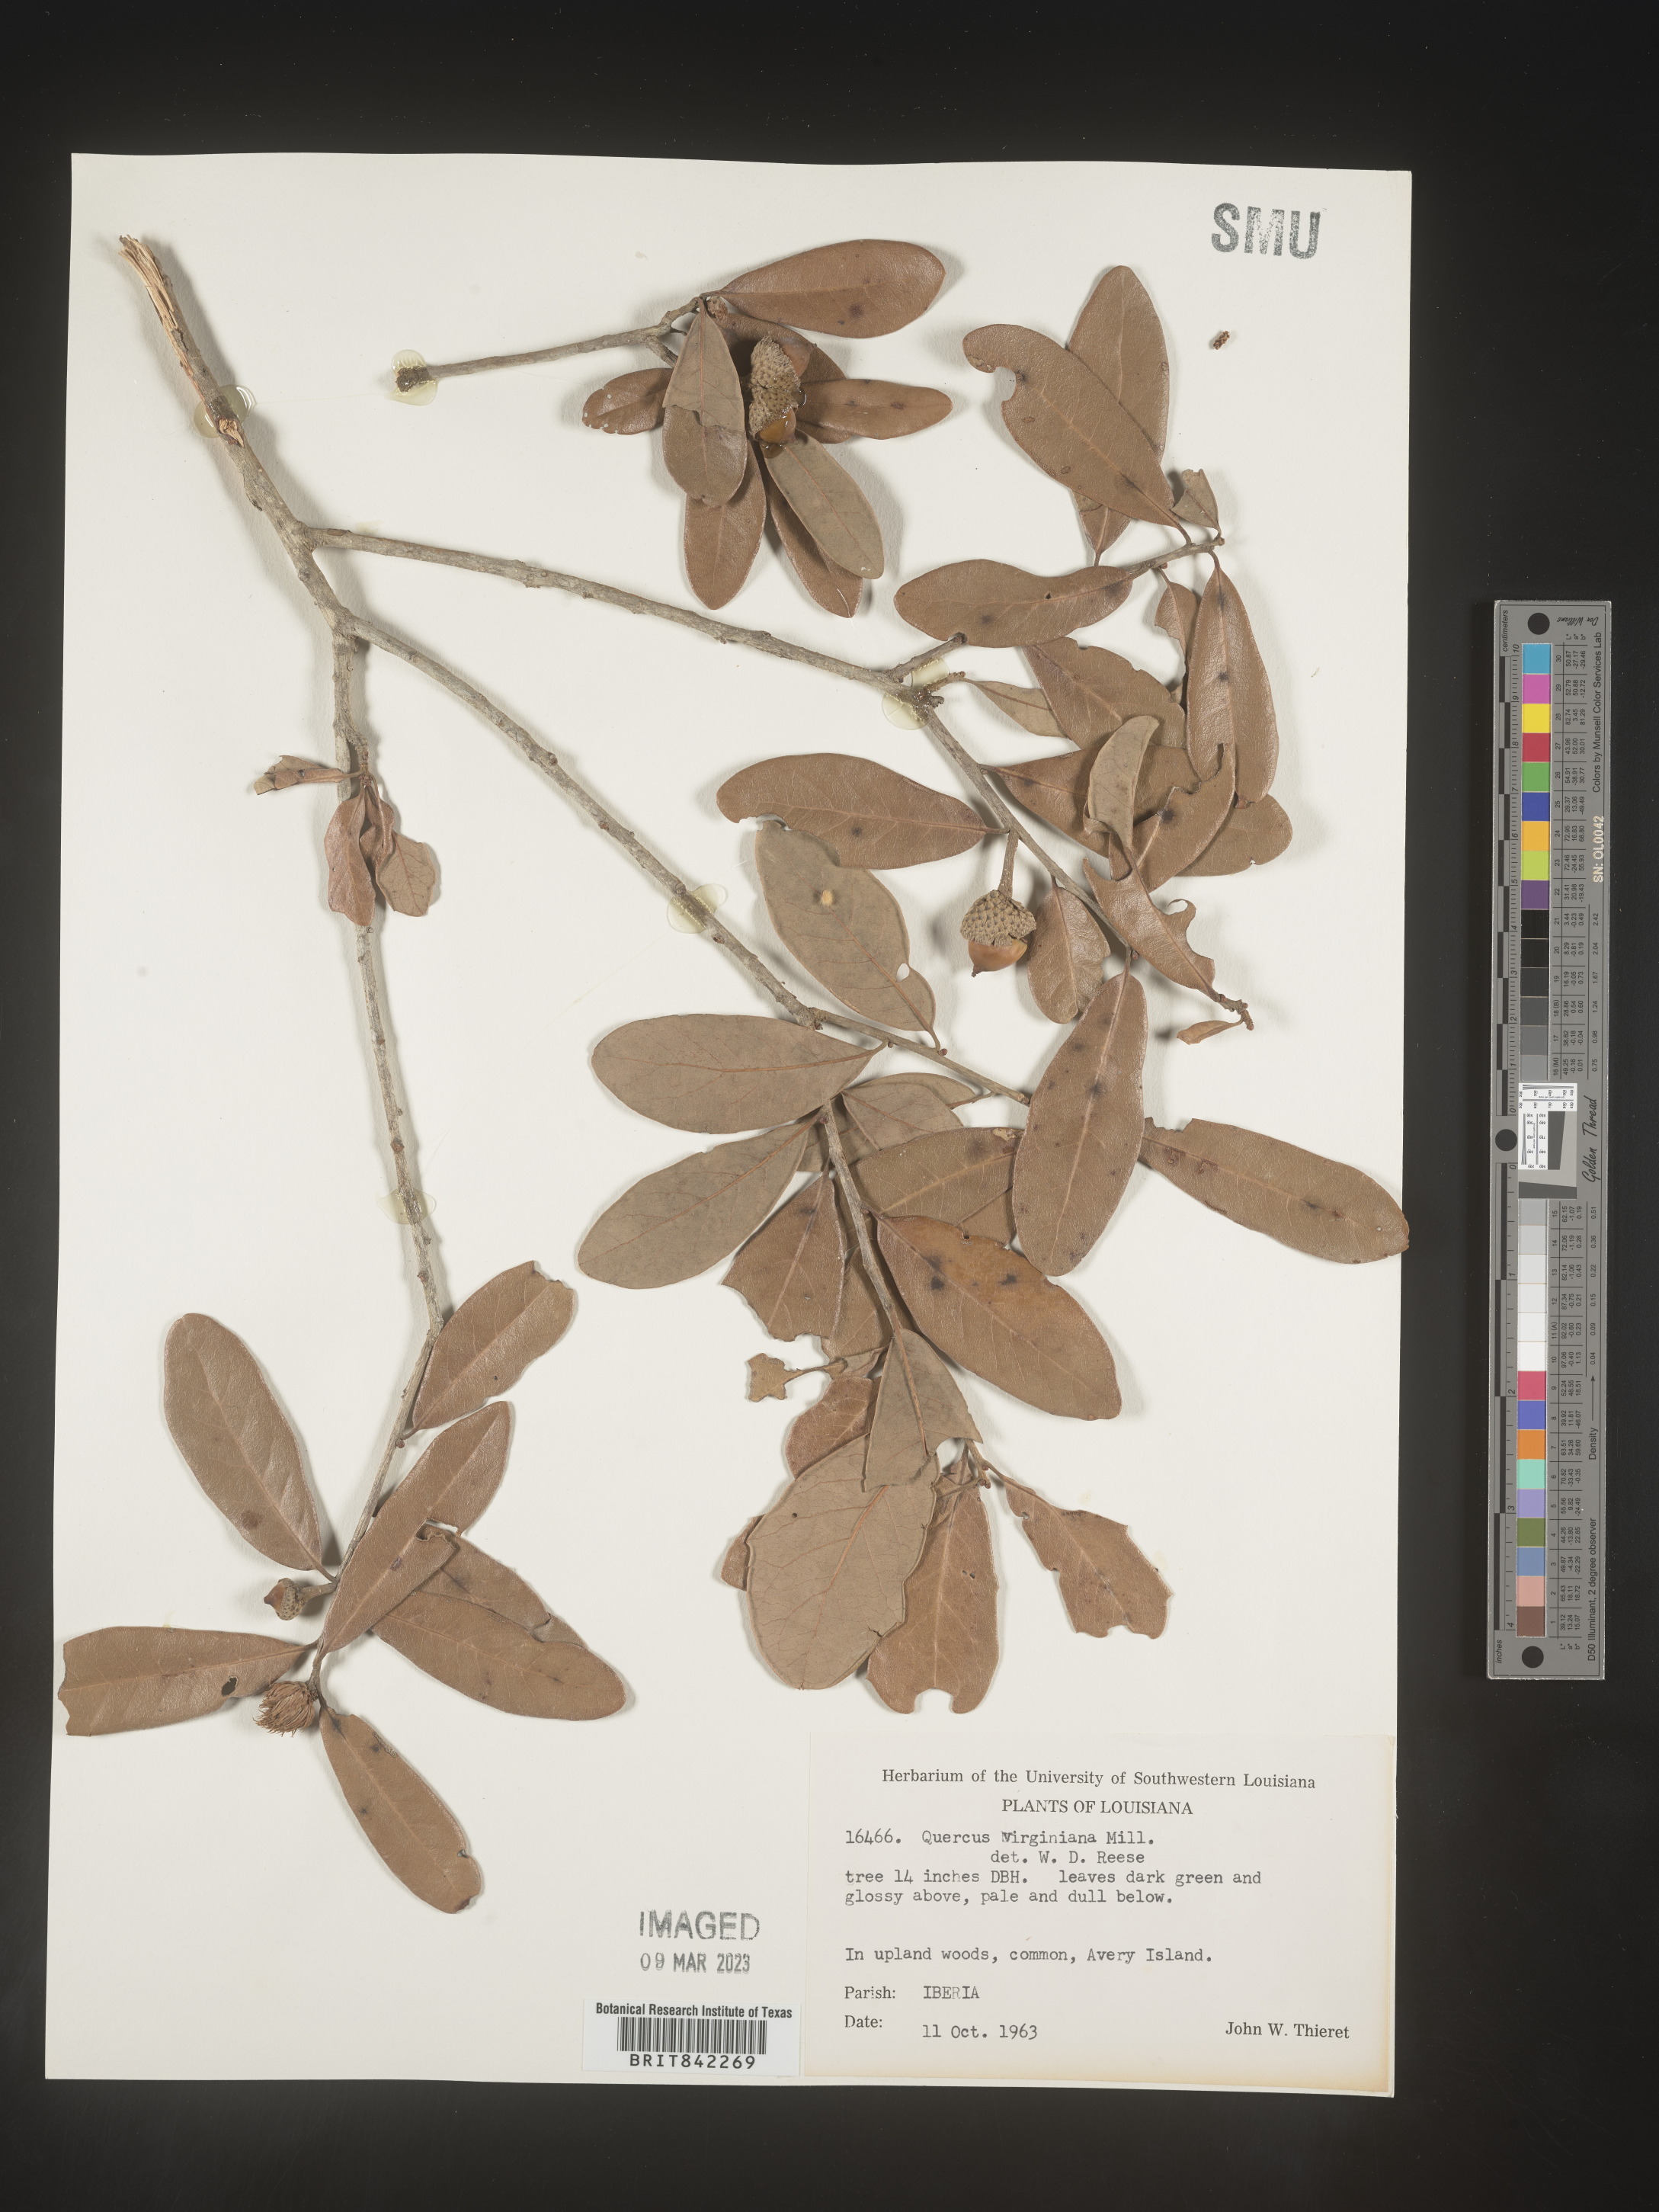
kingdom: Plantae
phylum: Tracheophyta
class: Magnoliopsida
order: Fagales
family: Fagaceae
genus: Quercus
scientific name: Quercus virginiana
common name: Southern live oak
